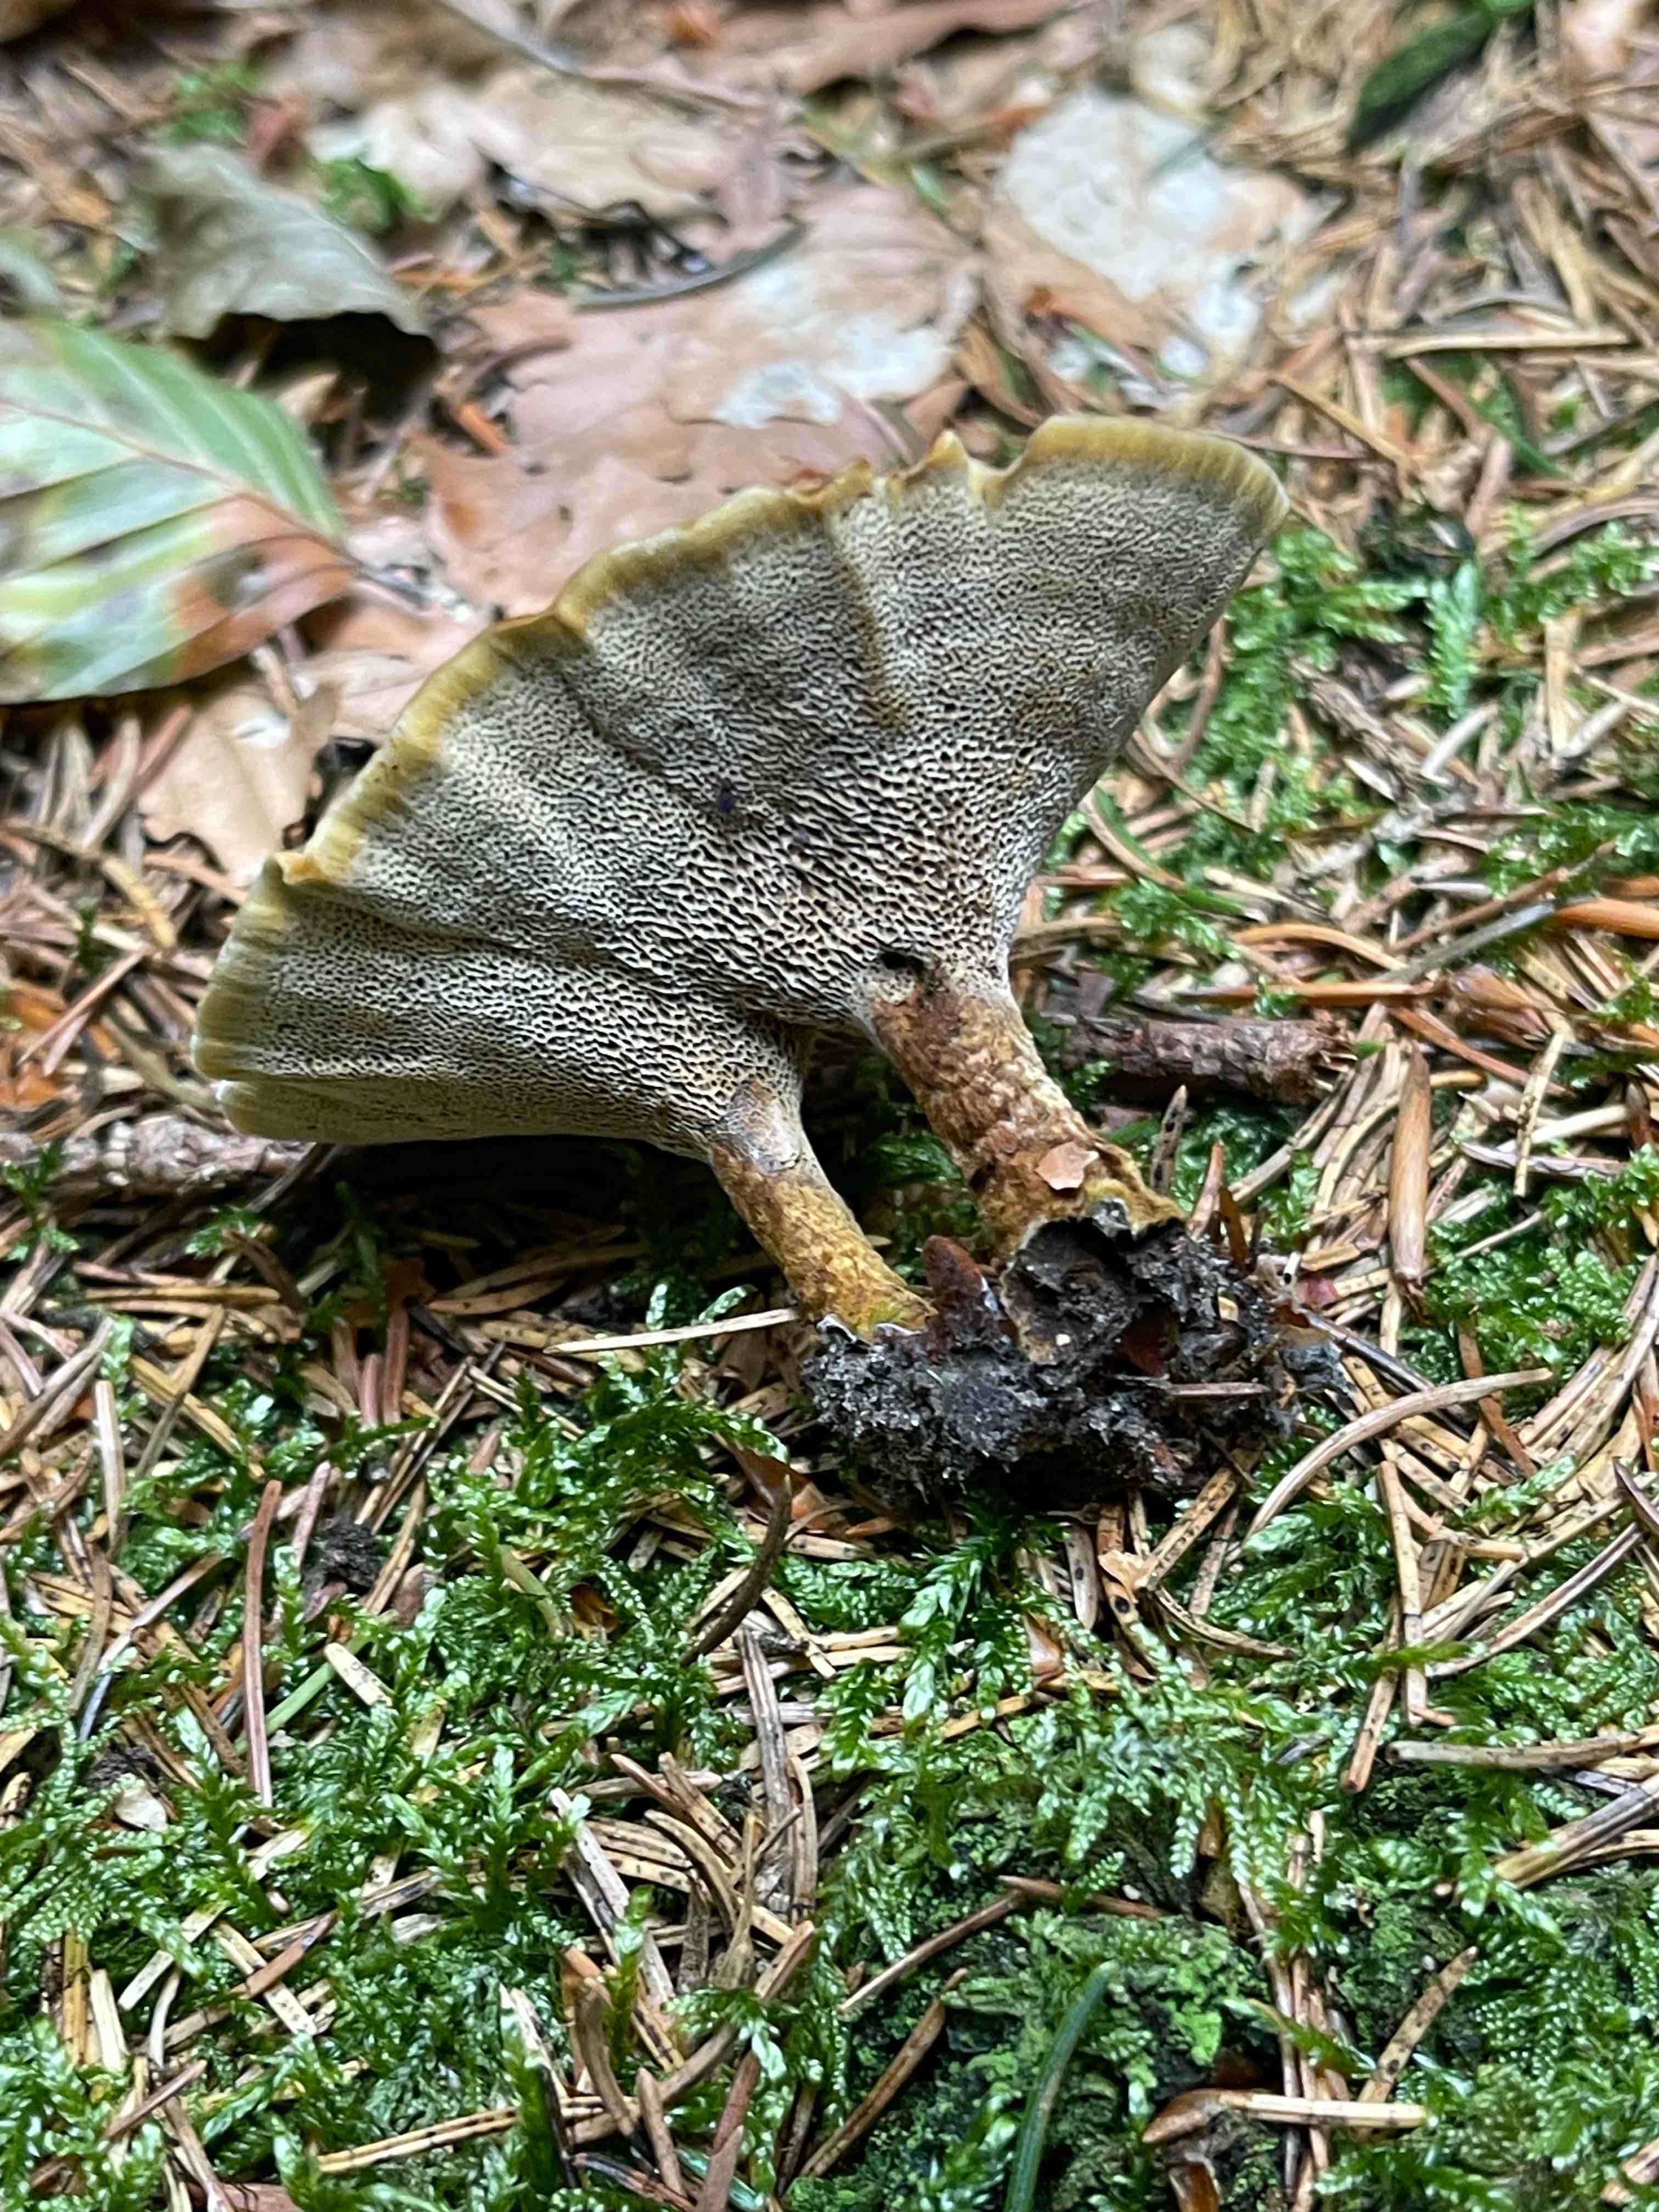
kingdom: Fungi
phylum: Basidiomycota
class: Agaricomycetes
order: Hymenochaetales
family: Hymenochaetaceae
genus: Coltricia
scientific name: Coltricia perennis
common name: almindelig sandporesvamp
